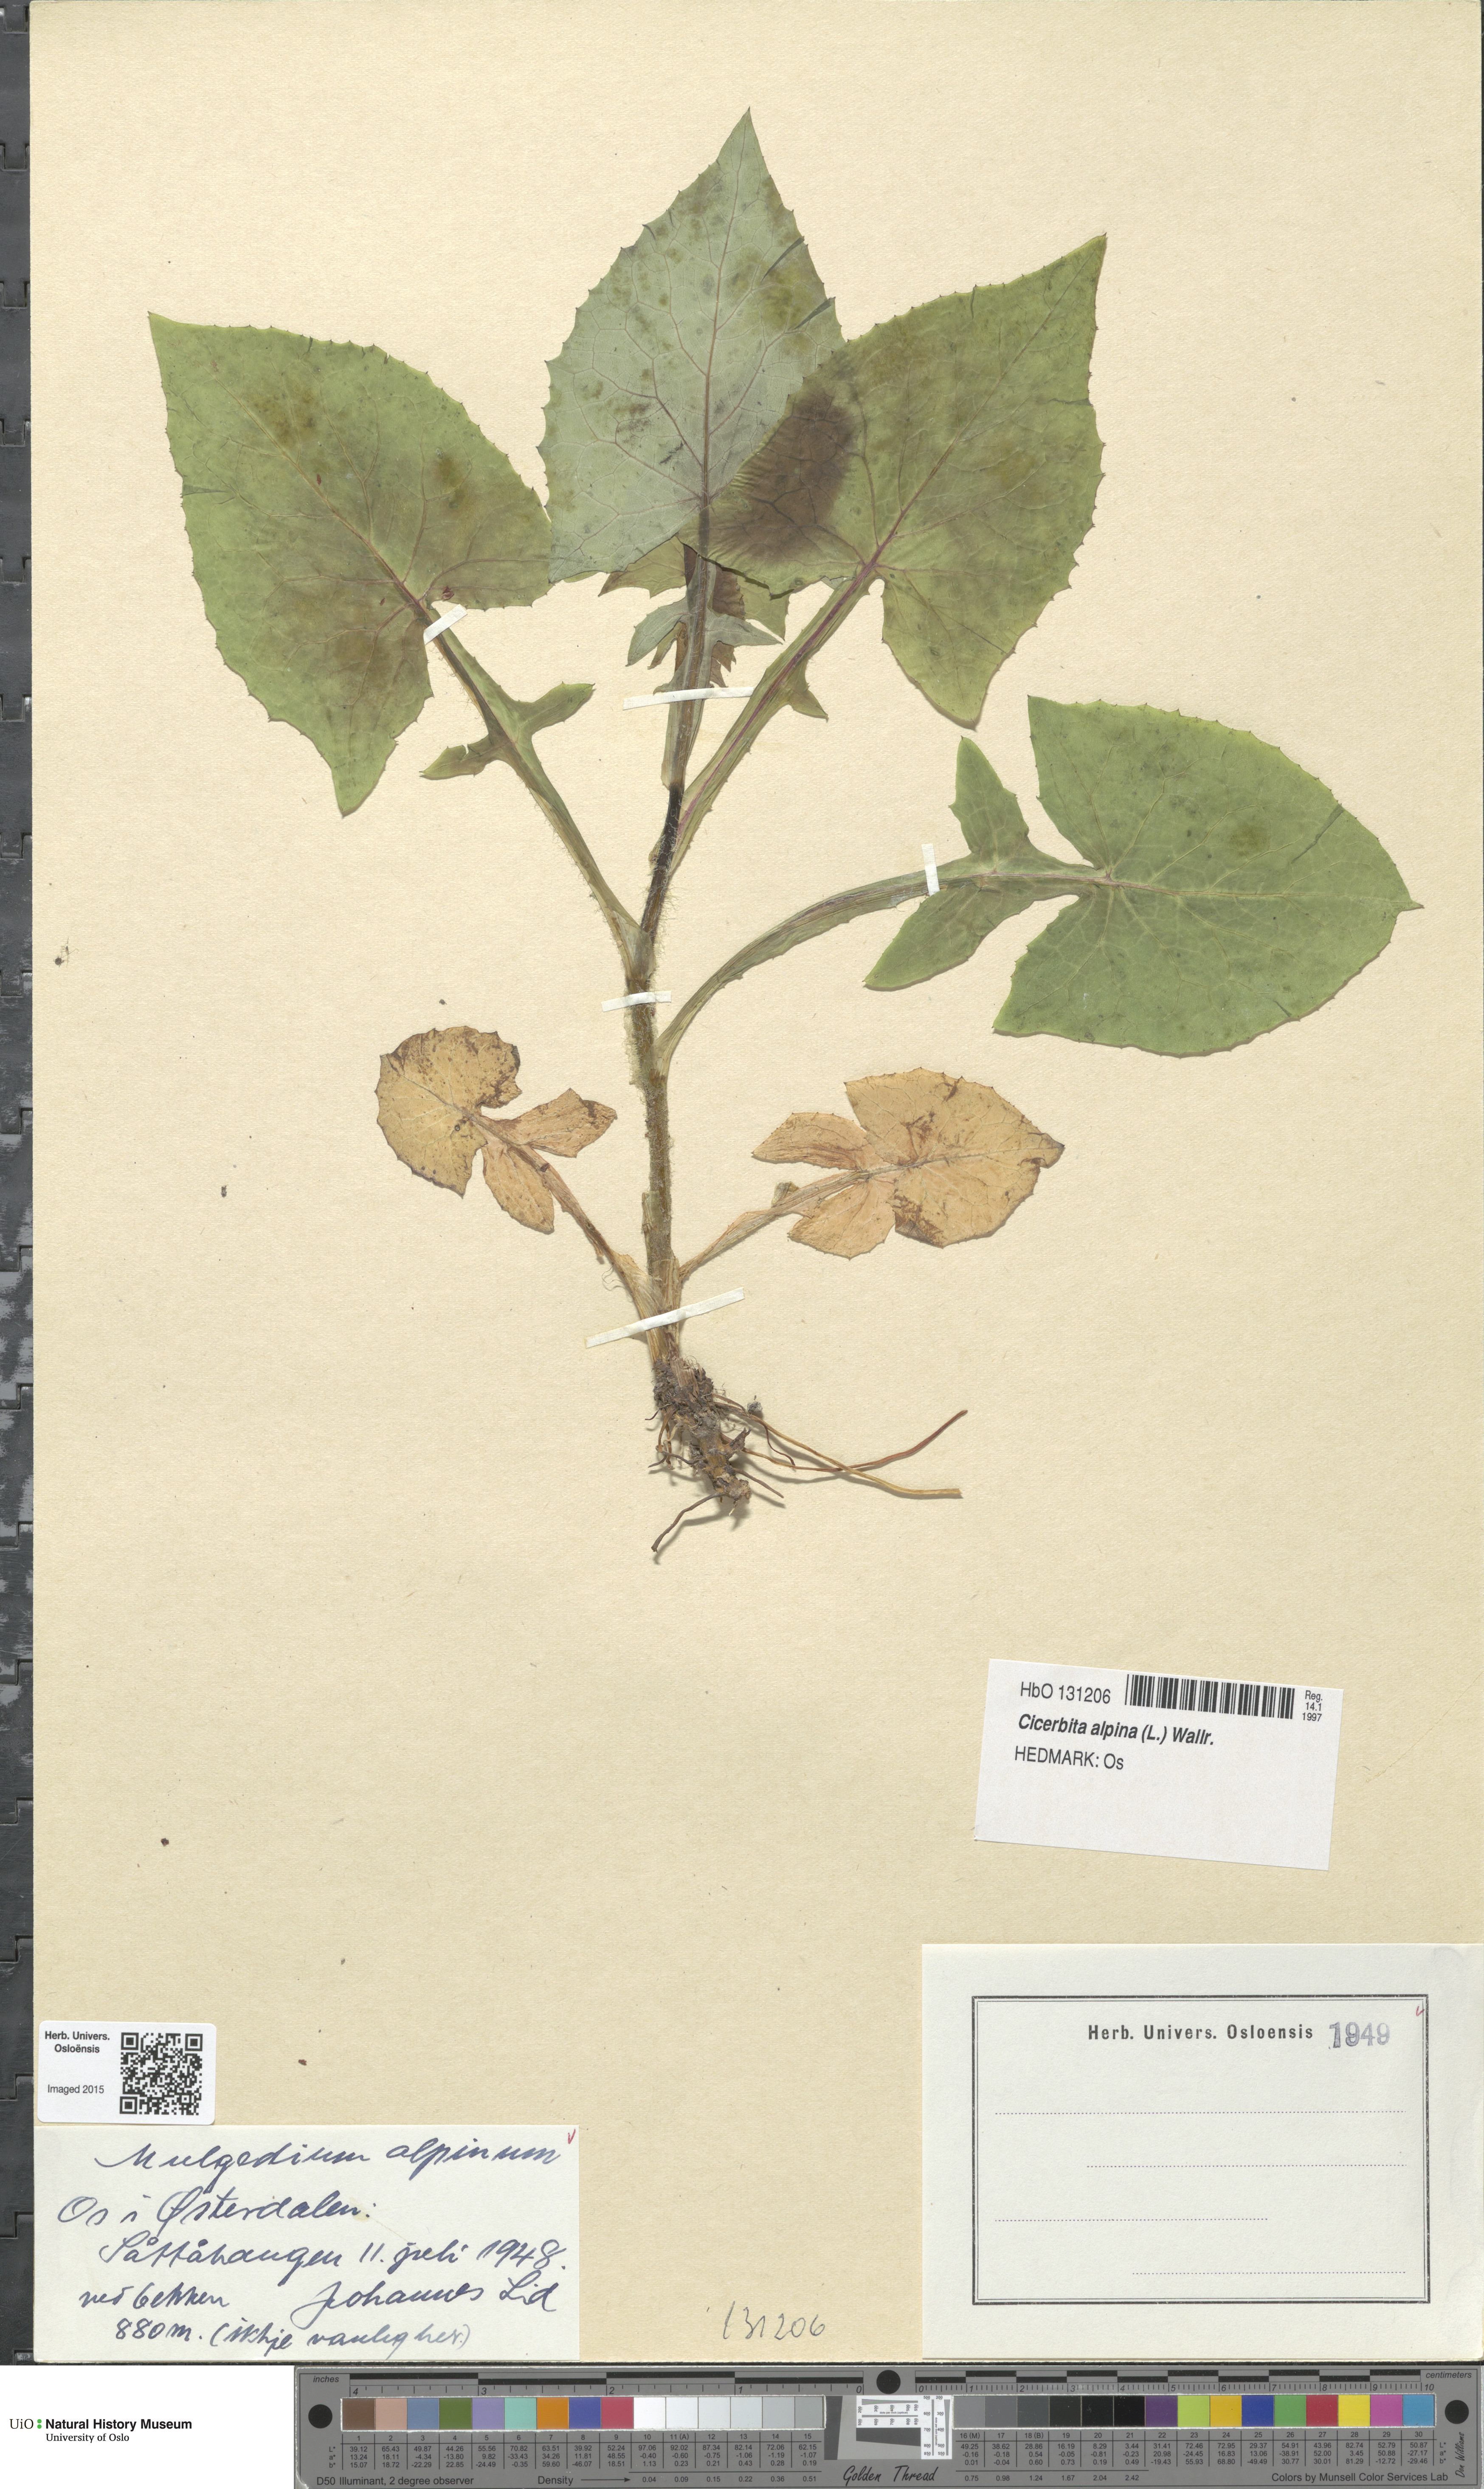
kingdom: Plantae
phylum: Tracheophyta
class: Magnoliopsida
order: Asterales
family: Asteraceae
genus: Cicerbita
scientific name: Cicerbita alpina
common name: Alpine blue-sow-thistle
